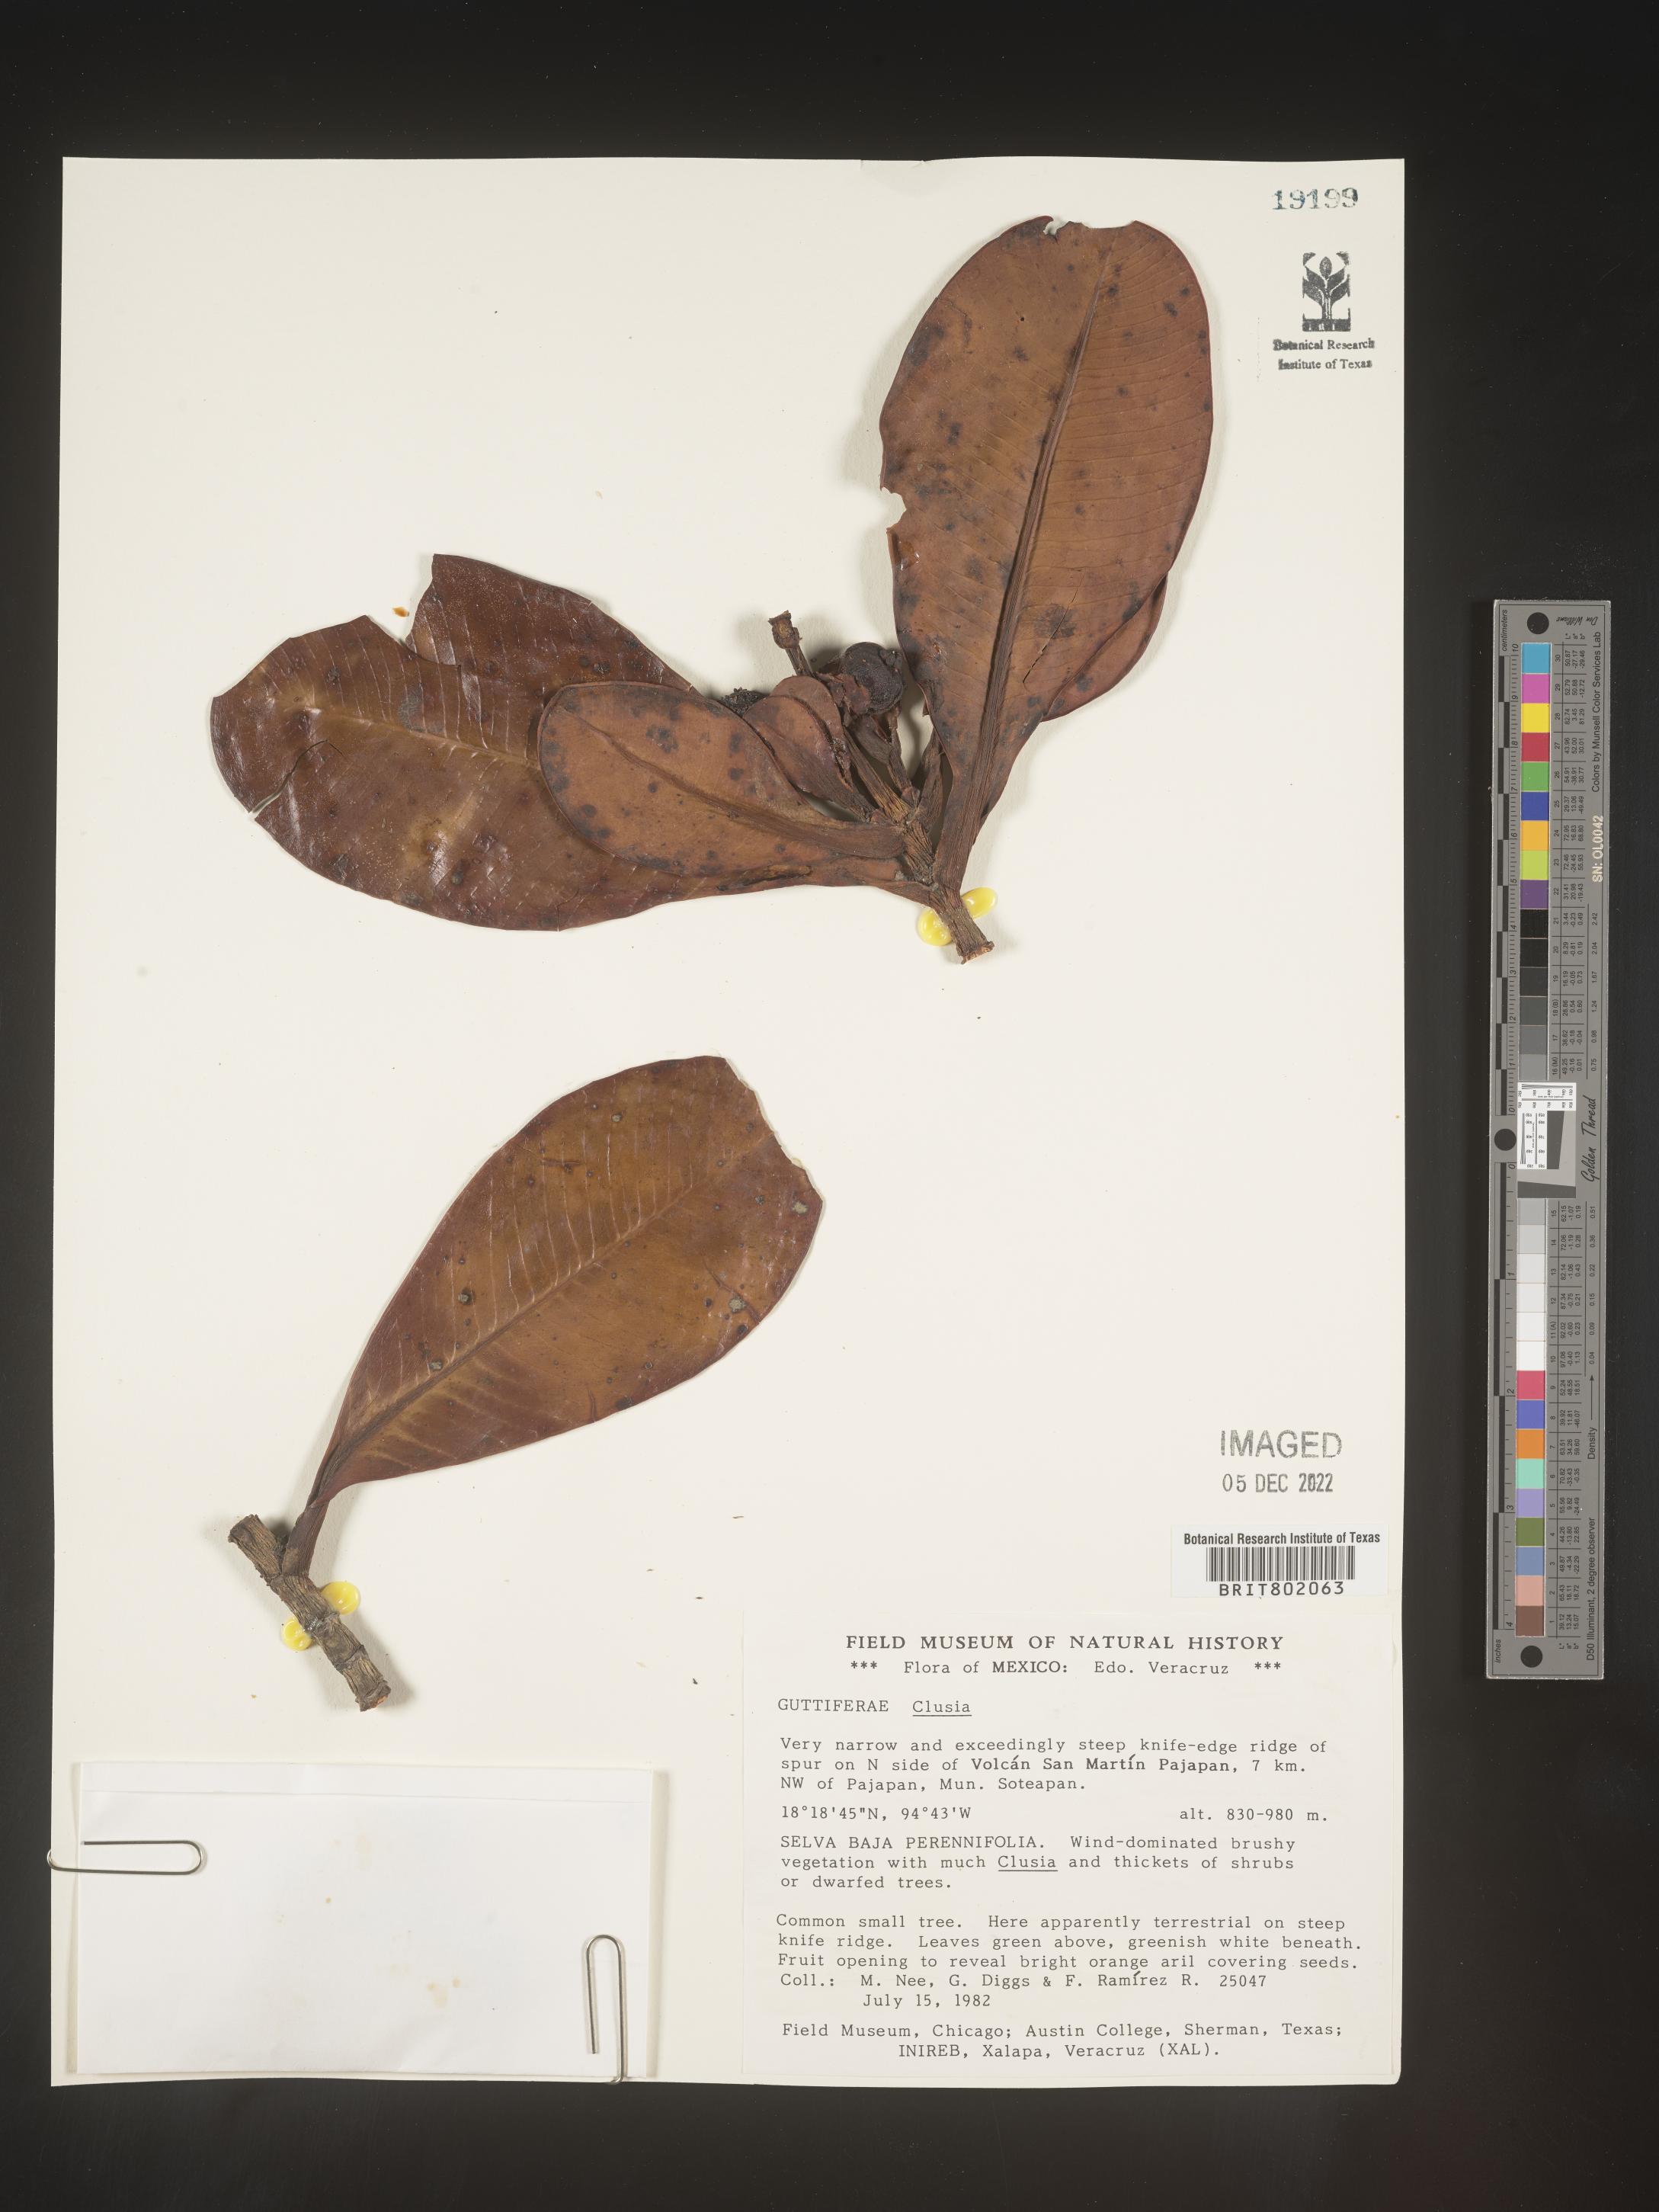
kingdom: Plantae
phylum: Tracheophyta
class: Magnoliopsida
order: Malpighiales
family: Clusiaceae
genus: Clusia
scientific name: Clusia
